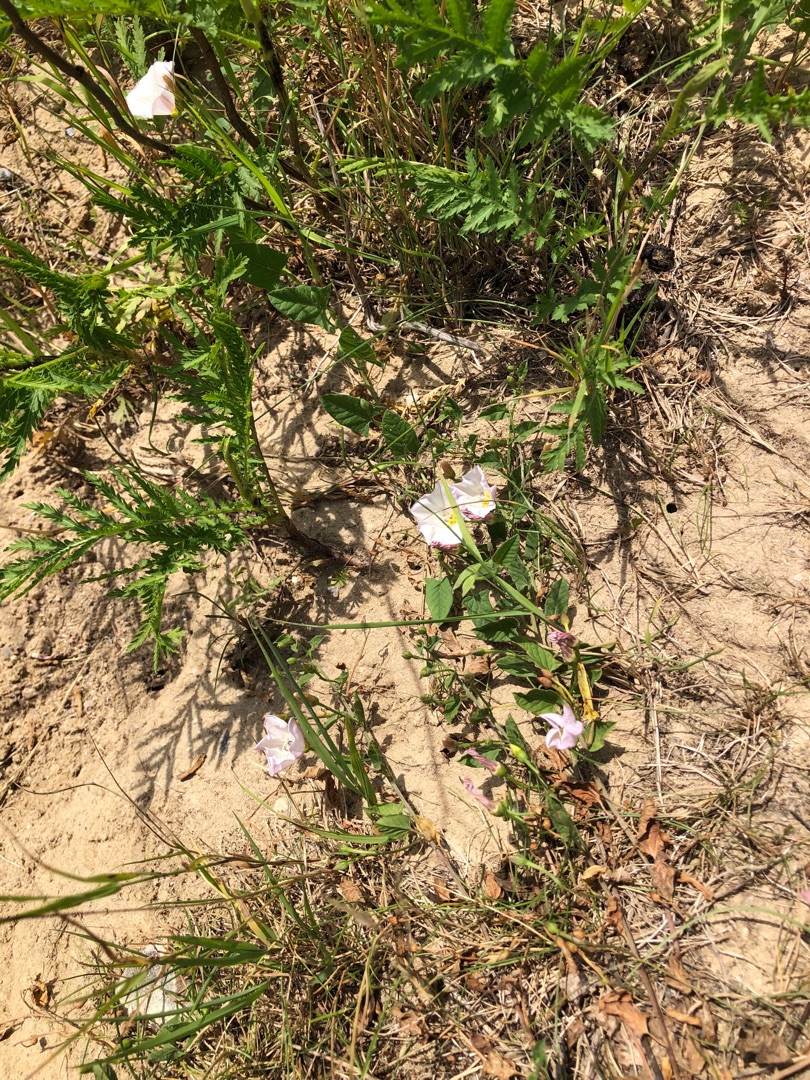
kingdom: Plantae
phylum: Tracheophyta
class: Magnoliopsida
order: Solanales
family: Convolvulaceae
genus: Convolvulus
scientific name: Convolvulus arvensis
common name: Ager-snerle
